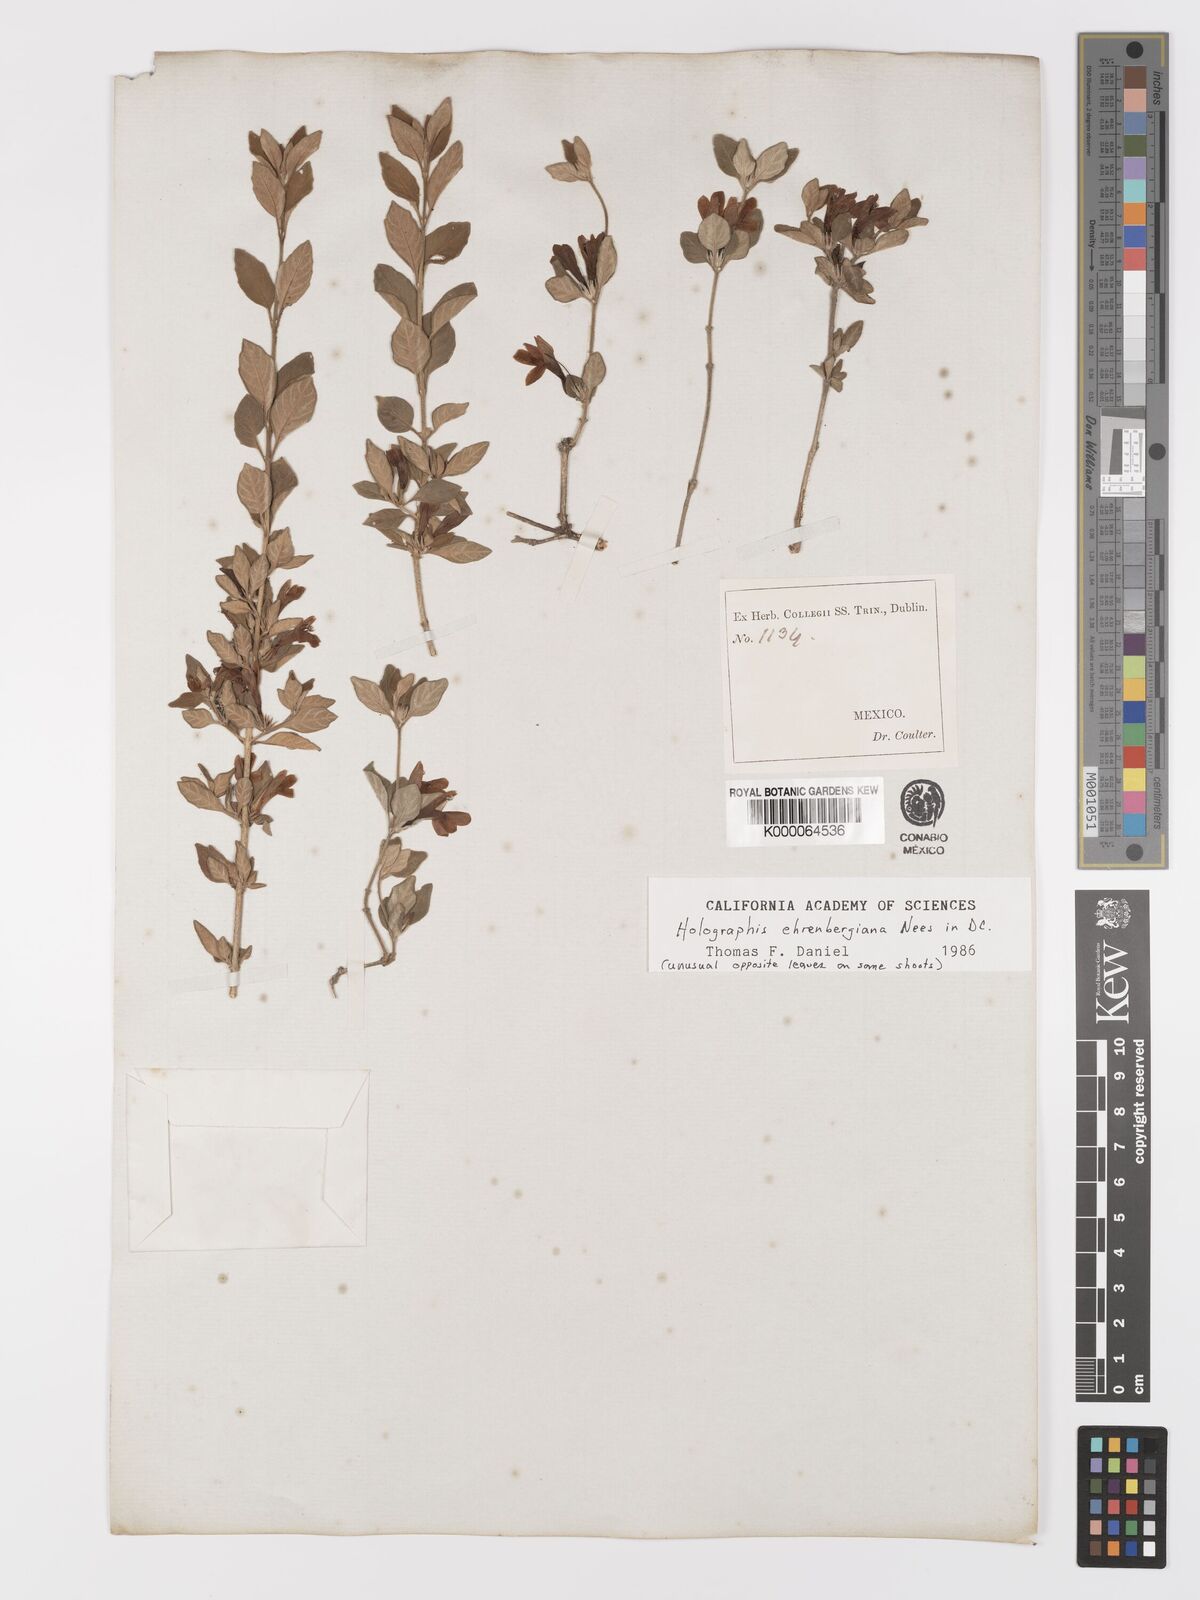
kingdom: Plantae
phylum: Tracheophyta
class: Magnoliopsida
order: Lamiales
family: Acanthaceae
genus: Holographis
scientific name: Holographis ehrenbergiana
